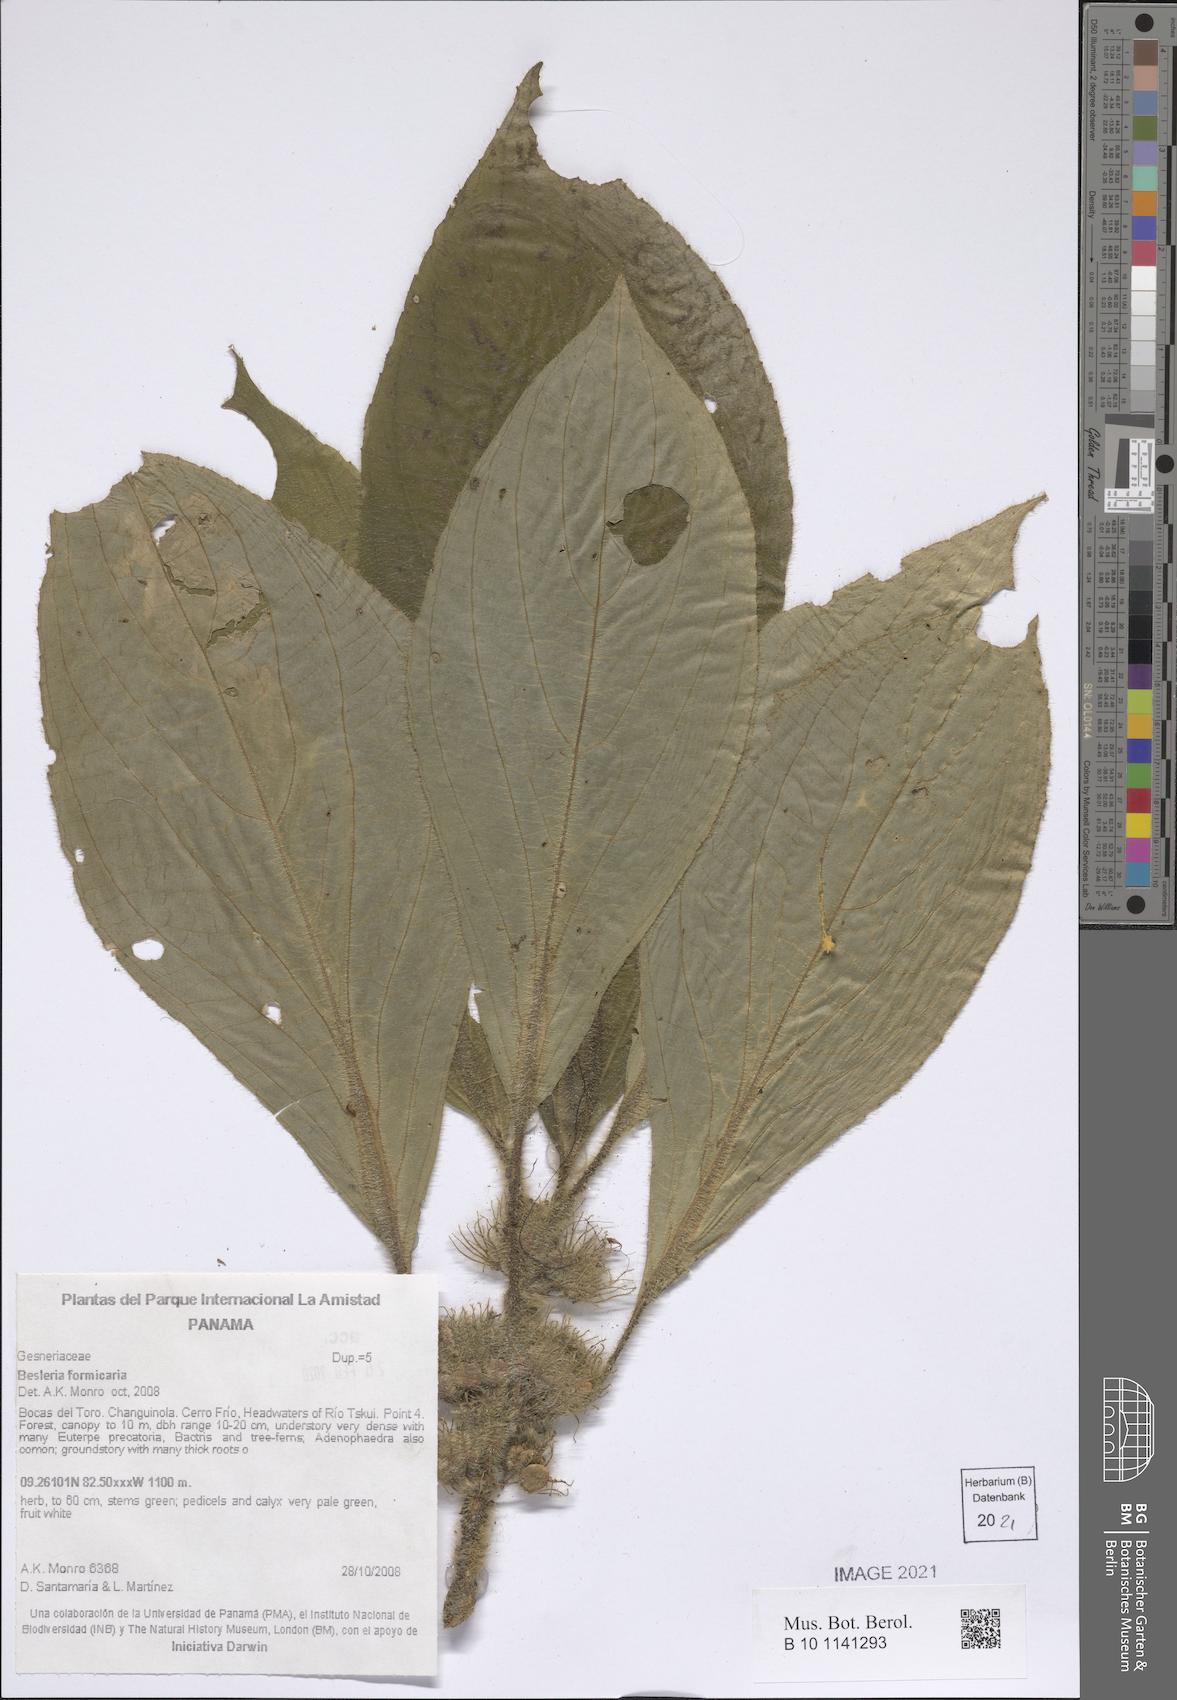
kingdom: Plantae
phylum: Tracheophyta
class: Magnoliopsida
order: Lamiales
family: Gesneriaceae
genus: Besleria
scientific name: Besleria formicaria
